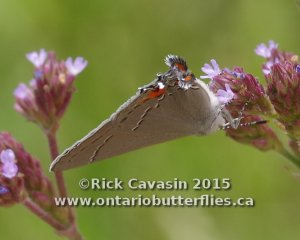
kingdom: Animalia
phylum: Arthropoda
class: Insecta
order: Lepidoptera
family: Lycaenidae
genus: Strymon
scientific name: Strymon melinus
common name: Gray Hairstreak
